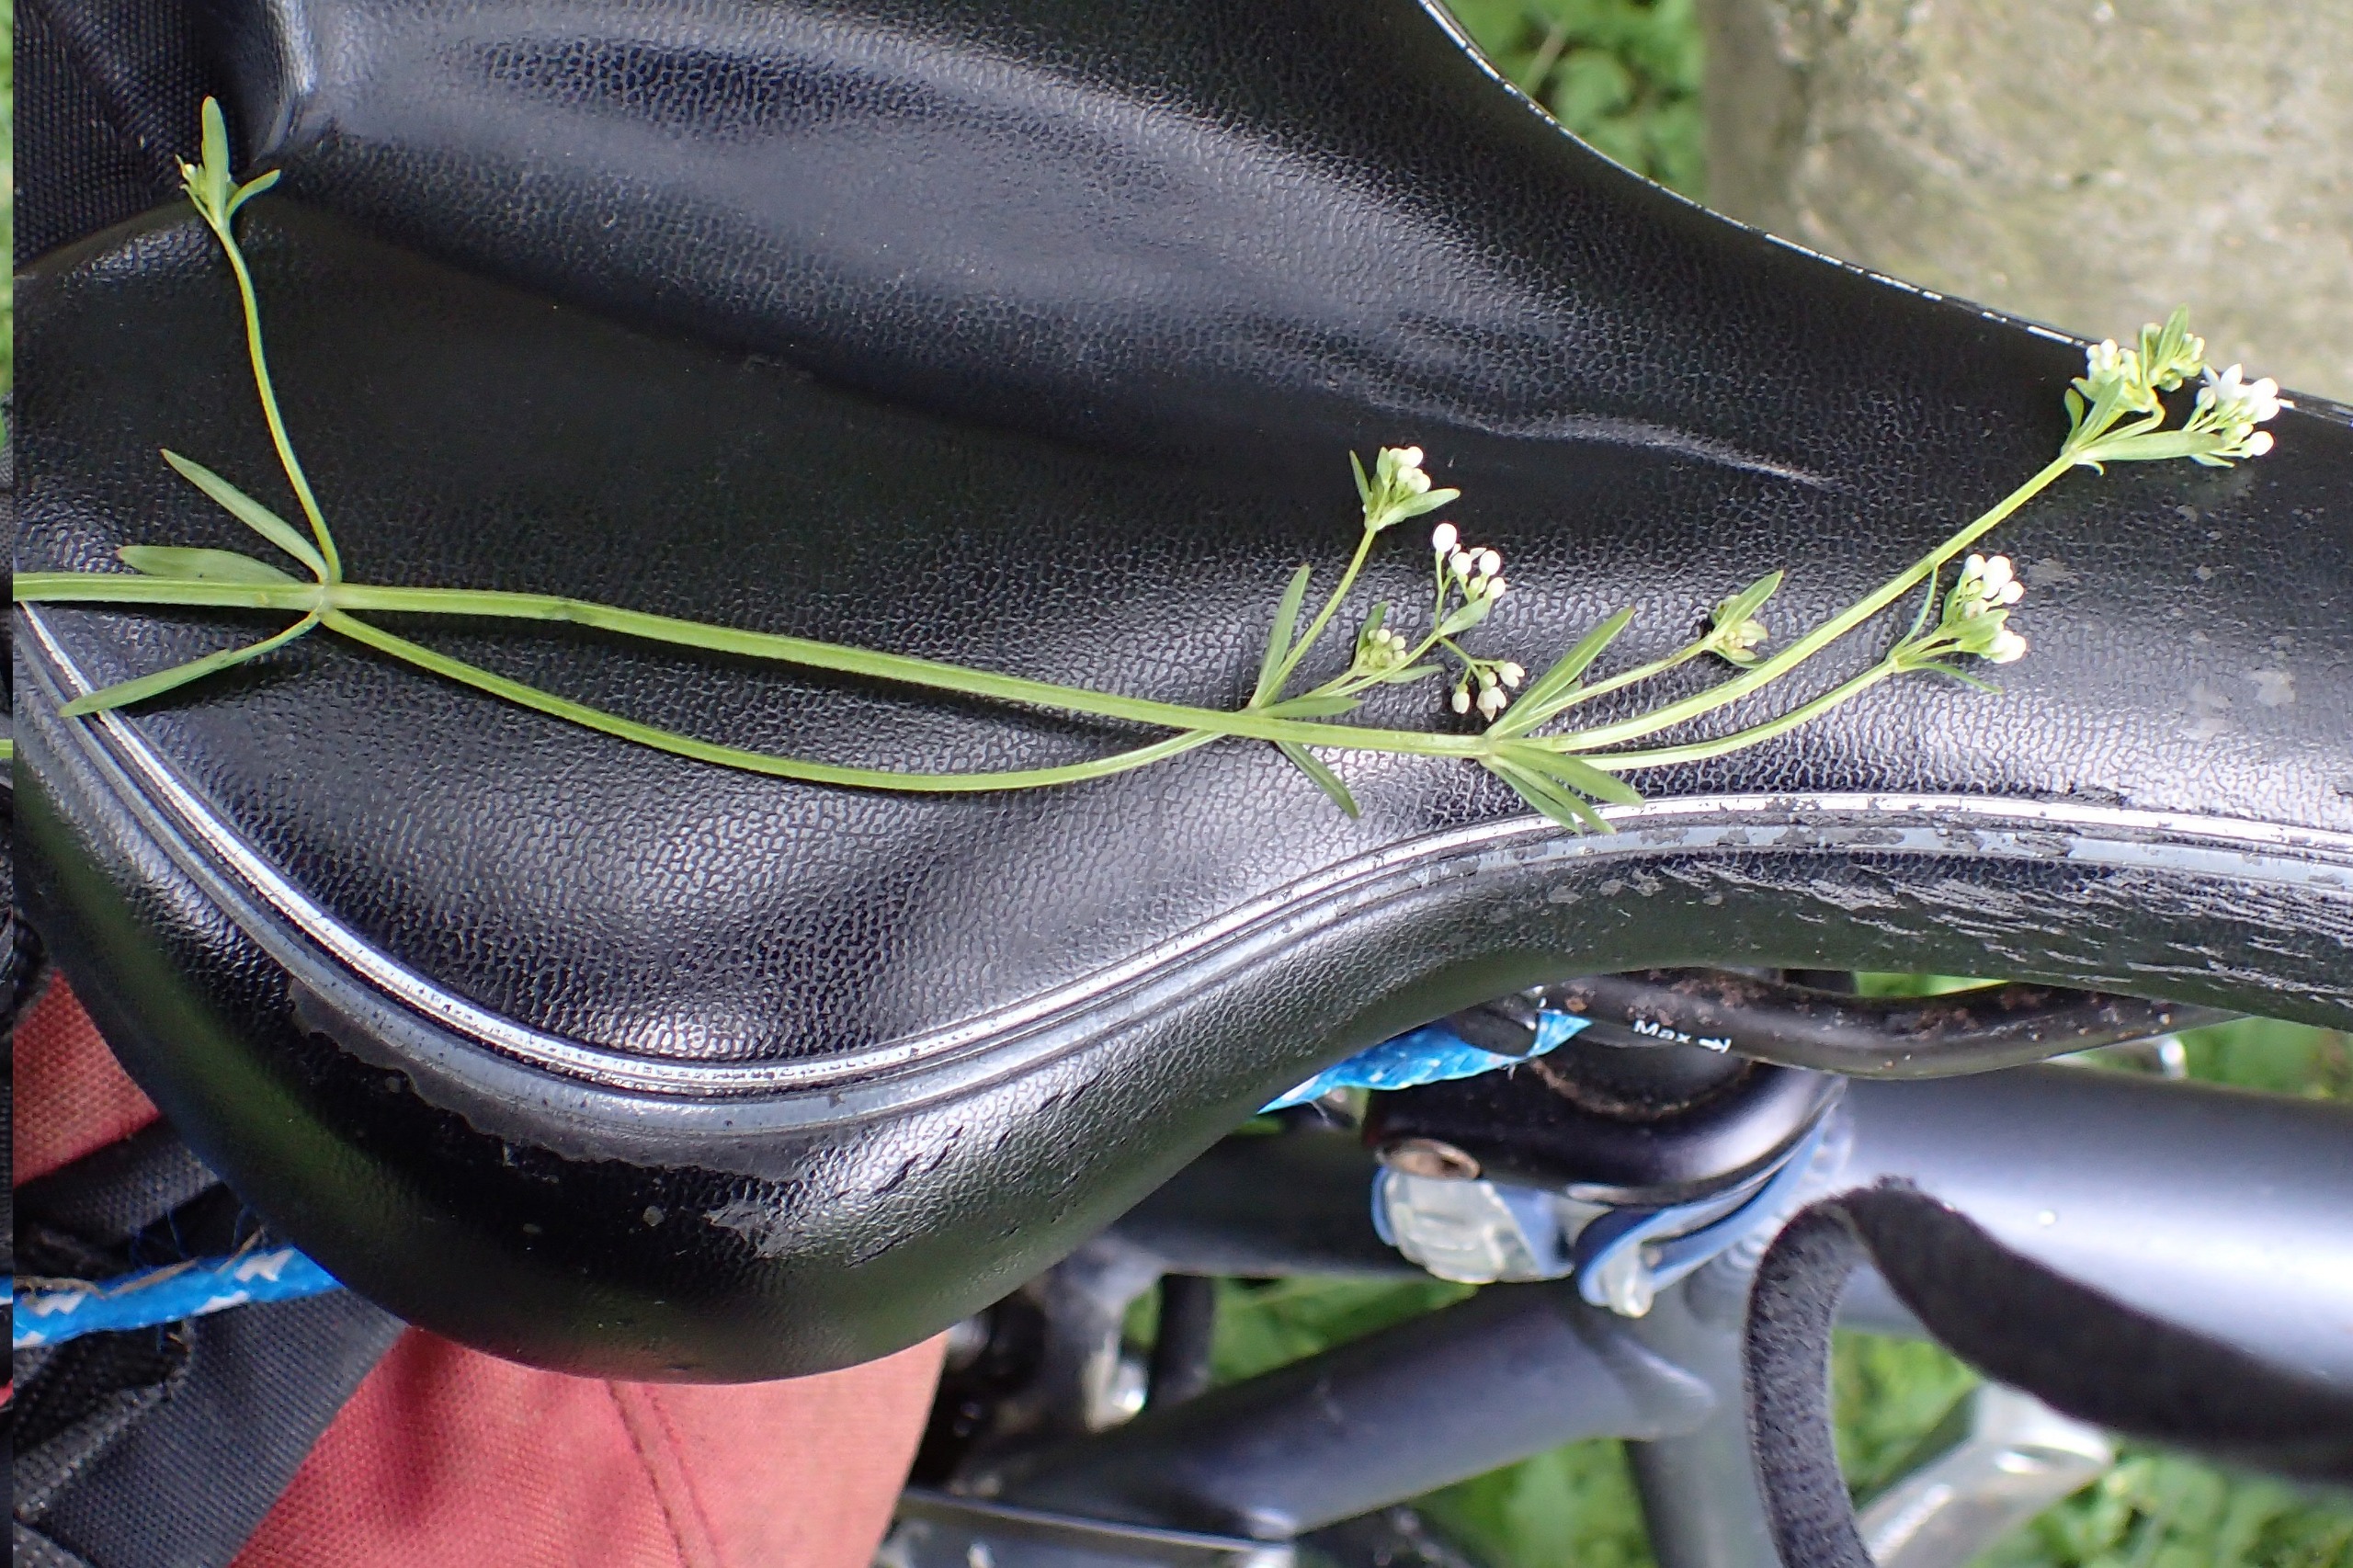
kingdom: Plantae
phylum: Tracheophyta
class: Magnoliopsida
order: Gentianales
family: Rubiaceae
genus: Galium
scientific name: Galium palustre
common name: Kær-snerre
